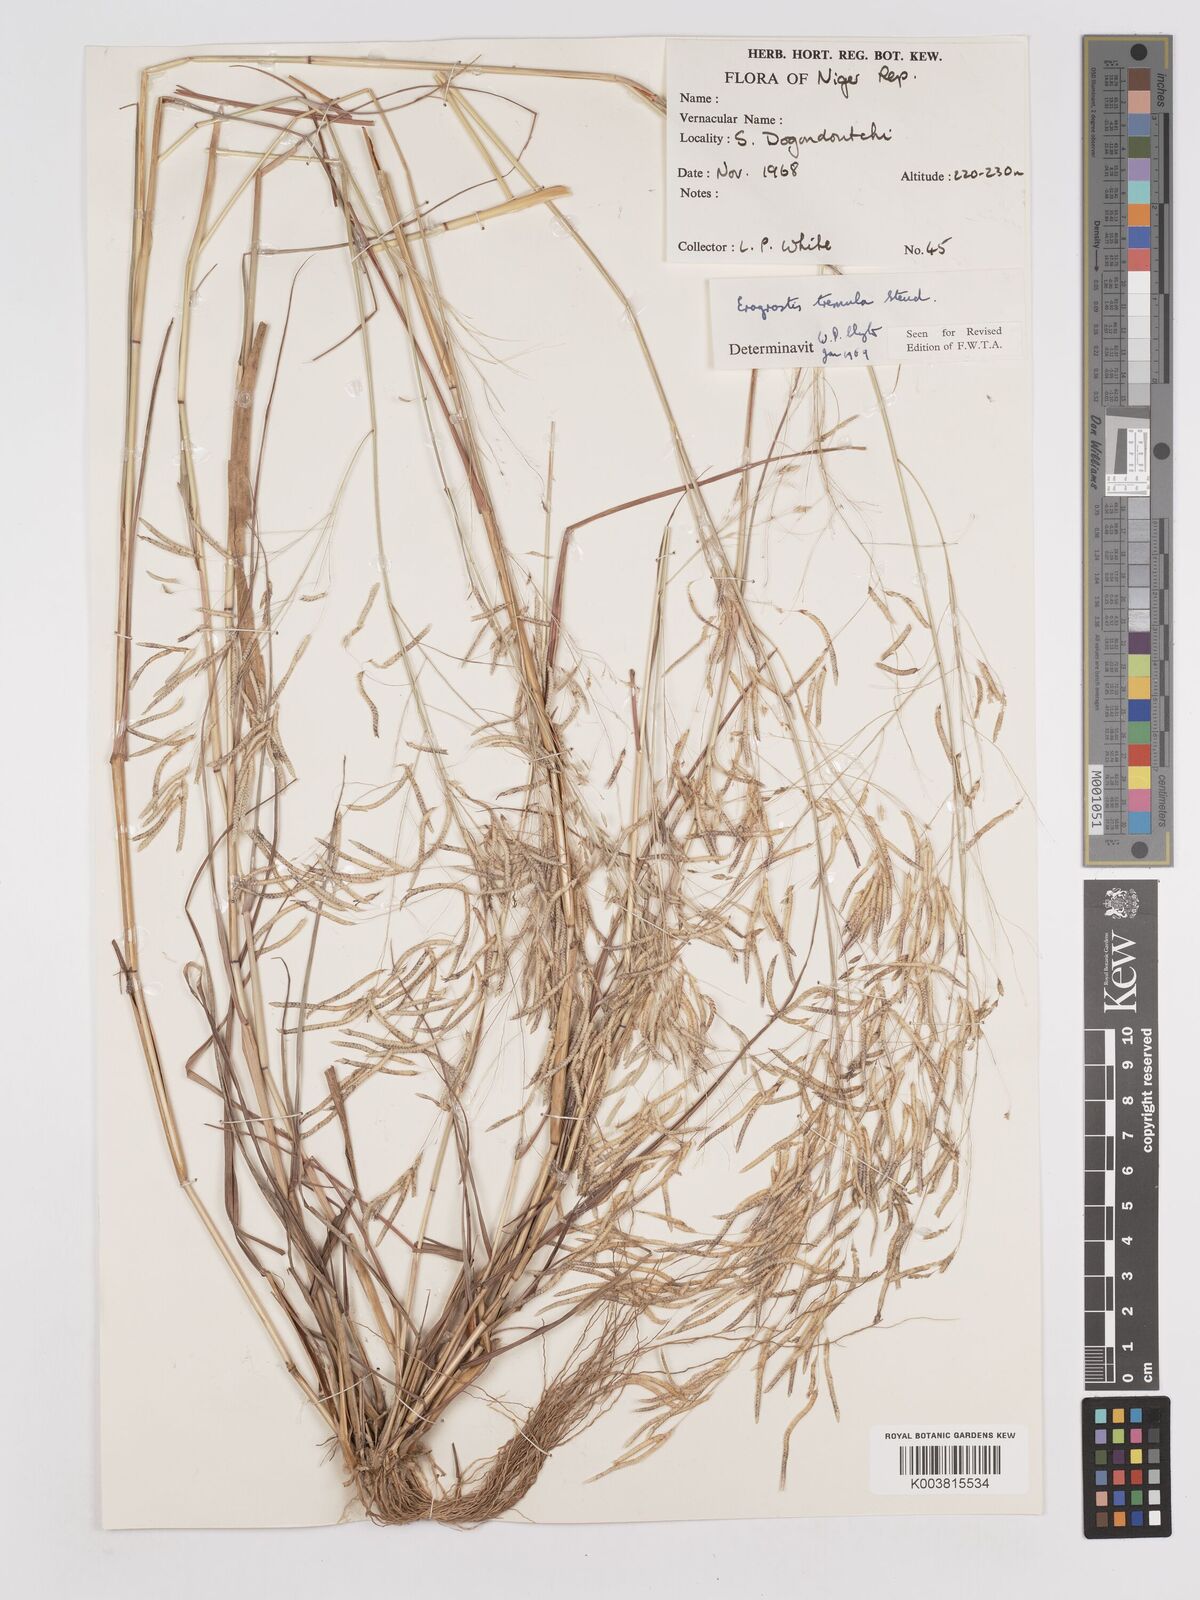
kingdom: Plantae
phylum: Tracheophyta
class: Liliopsida
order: Poales
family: Poaceae
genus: Eragrostis
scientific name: Eragrostis tremula
